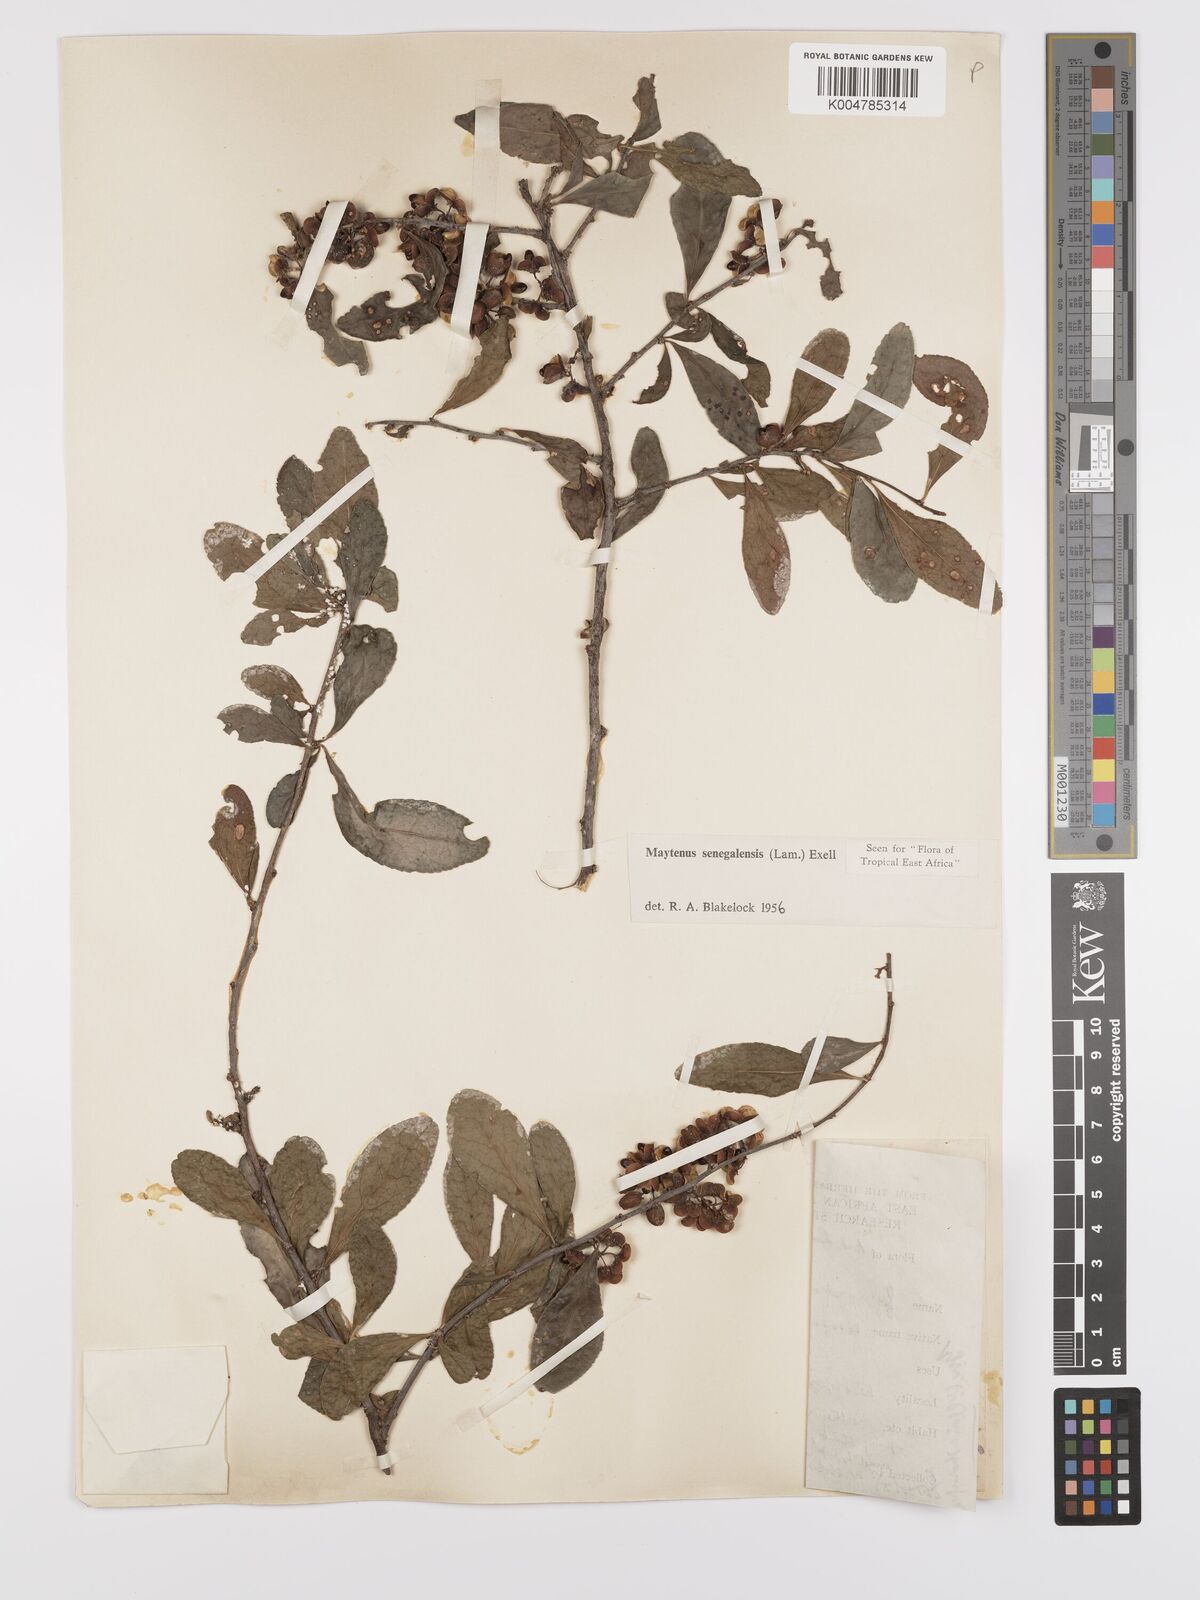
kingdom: Plantae
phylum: Tracheophyta
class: Magnoliopsida
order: Celastrales
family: Celastraceae
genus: Gymnosporia
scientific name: Gymnosporia heterophylla
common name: Angle-stem spikethorn
